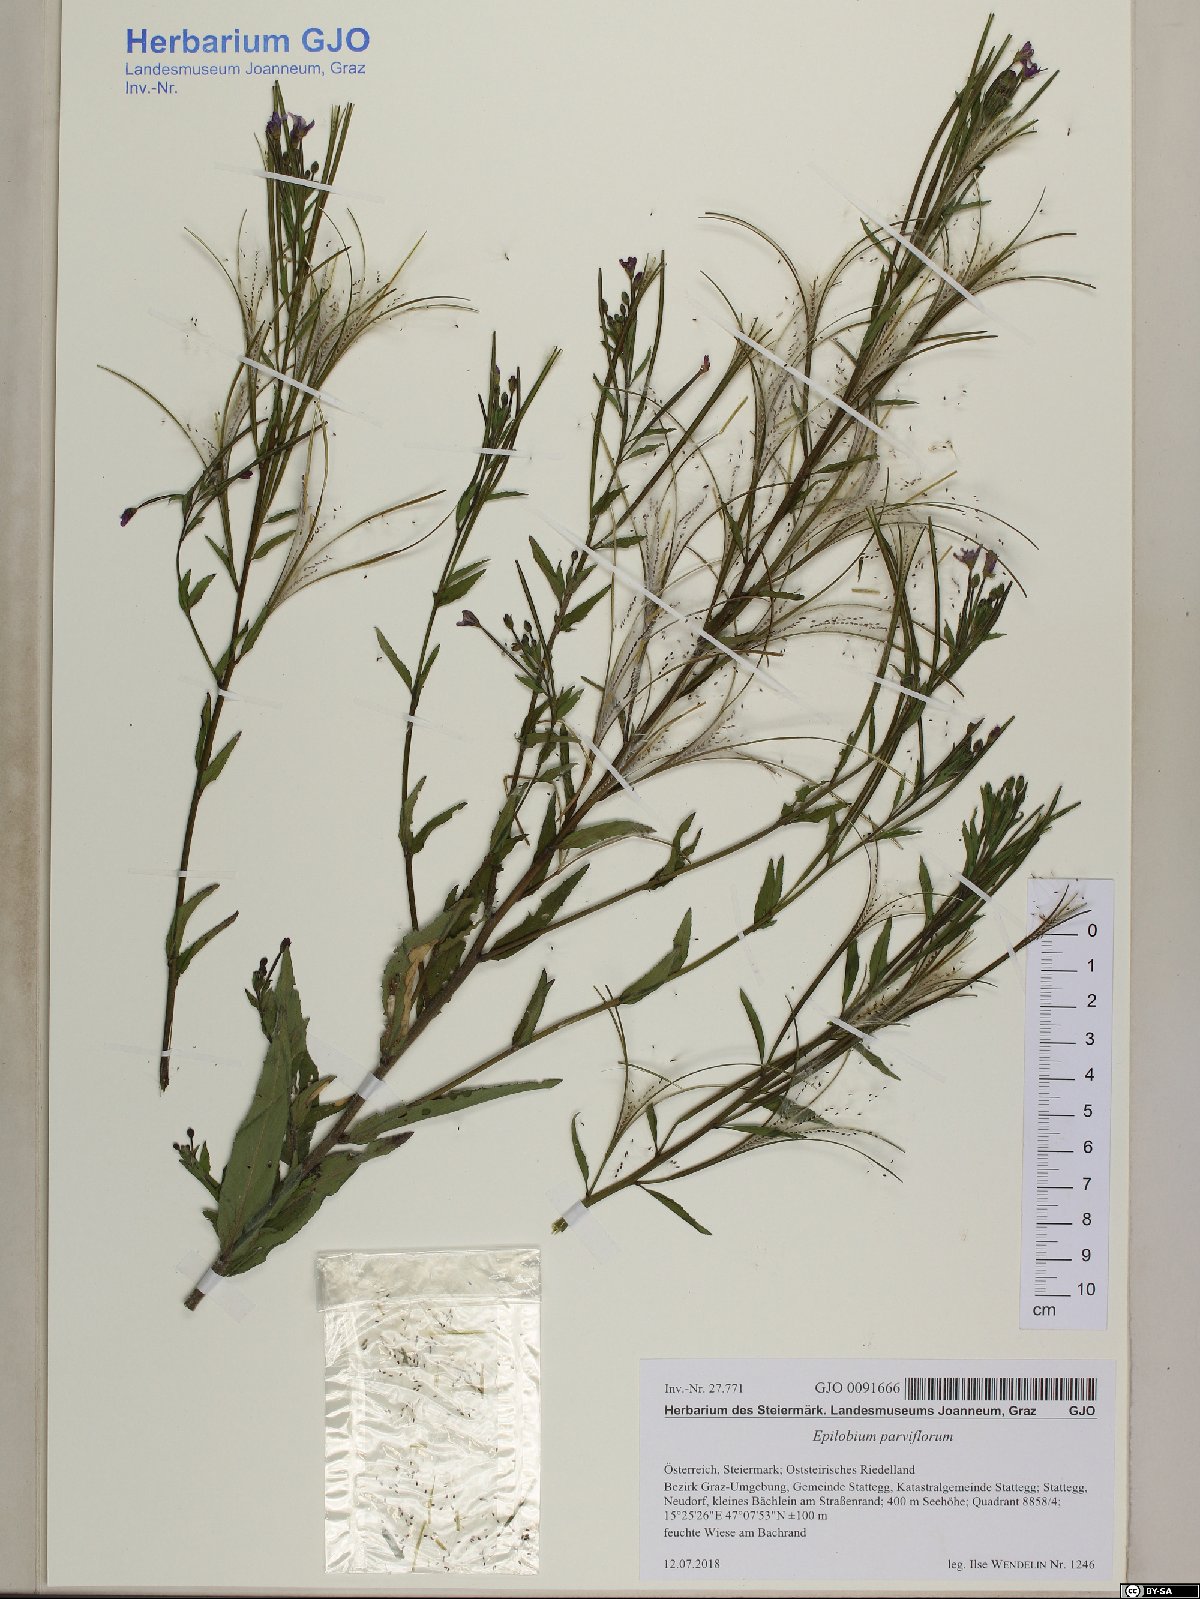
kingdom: Plantae
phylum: Tracheophyta
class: Magnoliopsida
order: Myrtales
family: Onagraceae
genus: Epilobium
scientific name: Epilobium parviflorum
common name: Hoary willowherb
